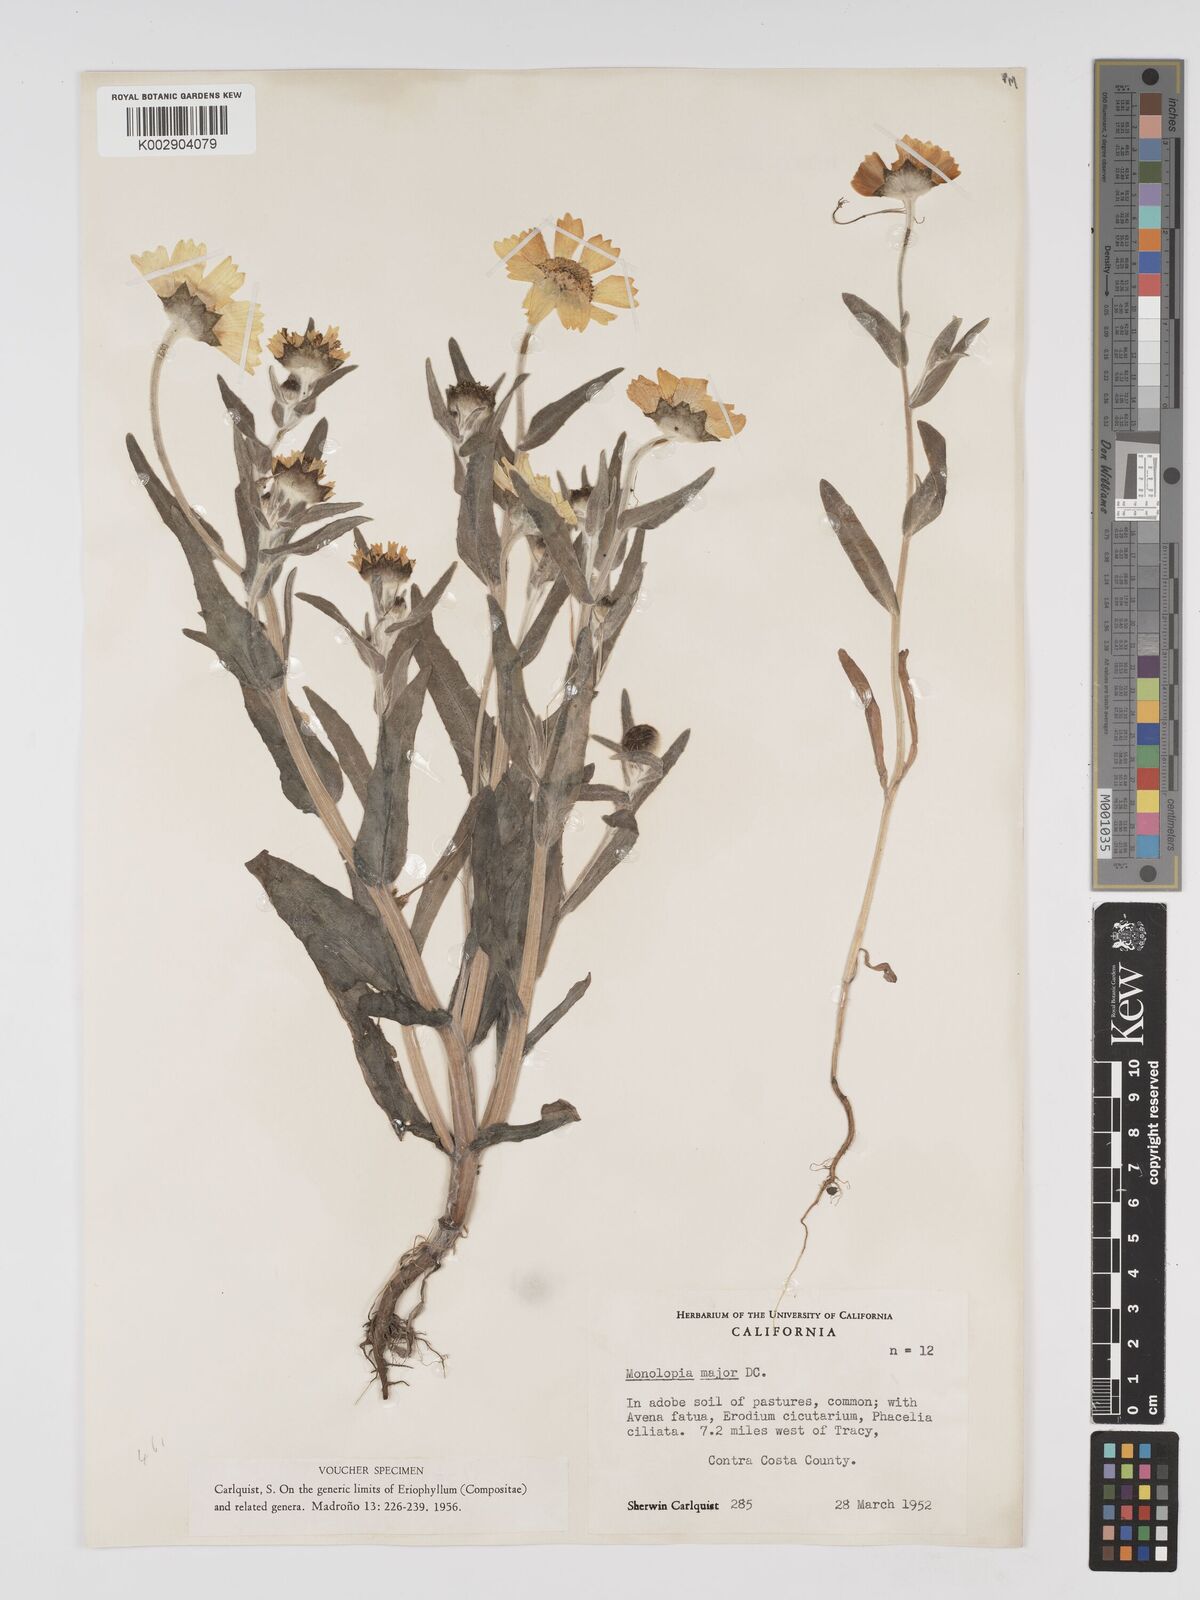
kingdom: Plantae
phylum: Tracheophyta
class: Magnoliopsida
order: Asterales
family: Asteraceae
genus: Monolopia
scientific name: Monolopia major
